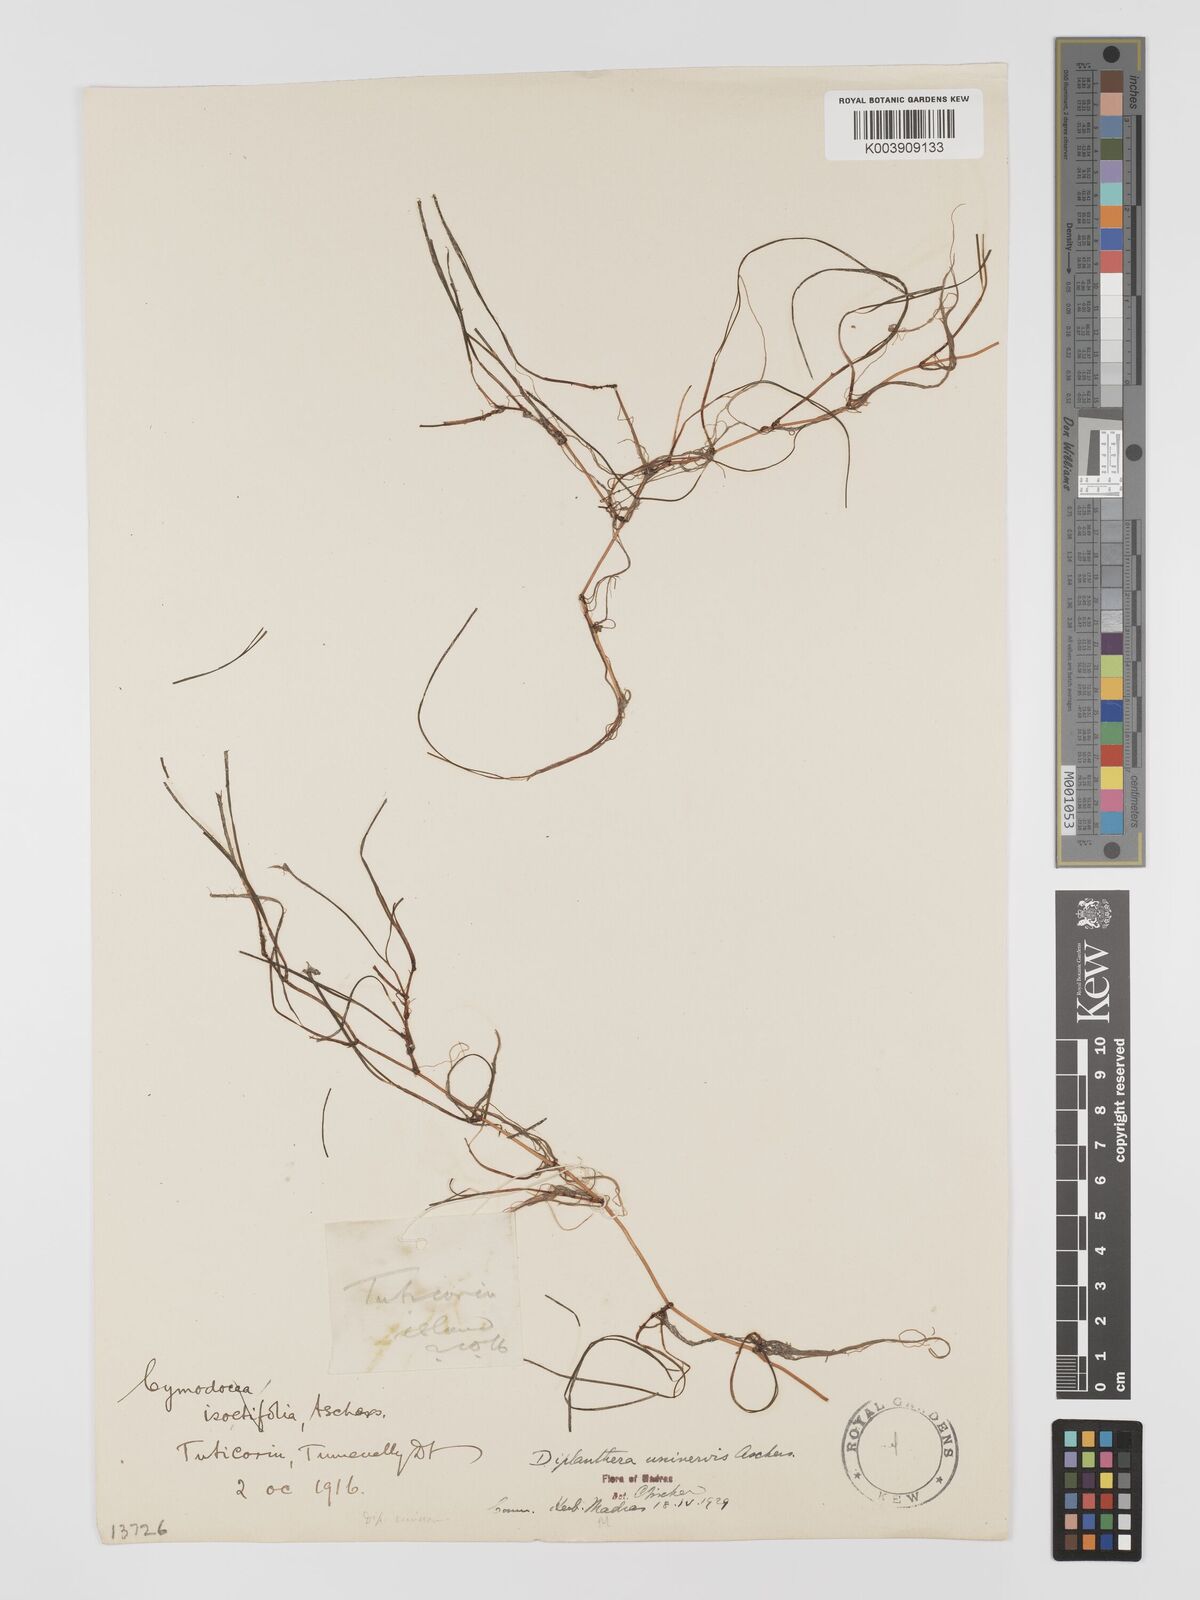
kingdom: Plantae
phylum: Tracheophyta
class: Liliopsida
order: Alismatales
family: Cymodoceaceae
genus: Halodule
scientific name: Halodule uninervis
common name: Narrowleaf seagrass
